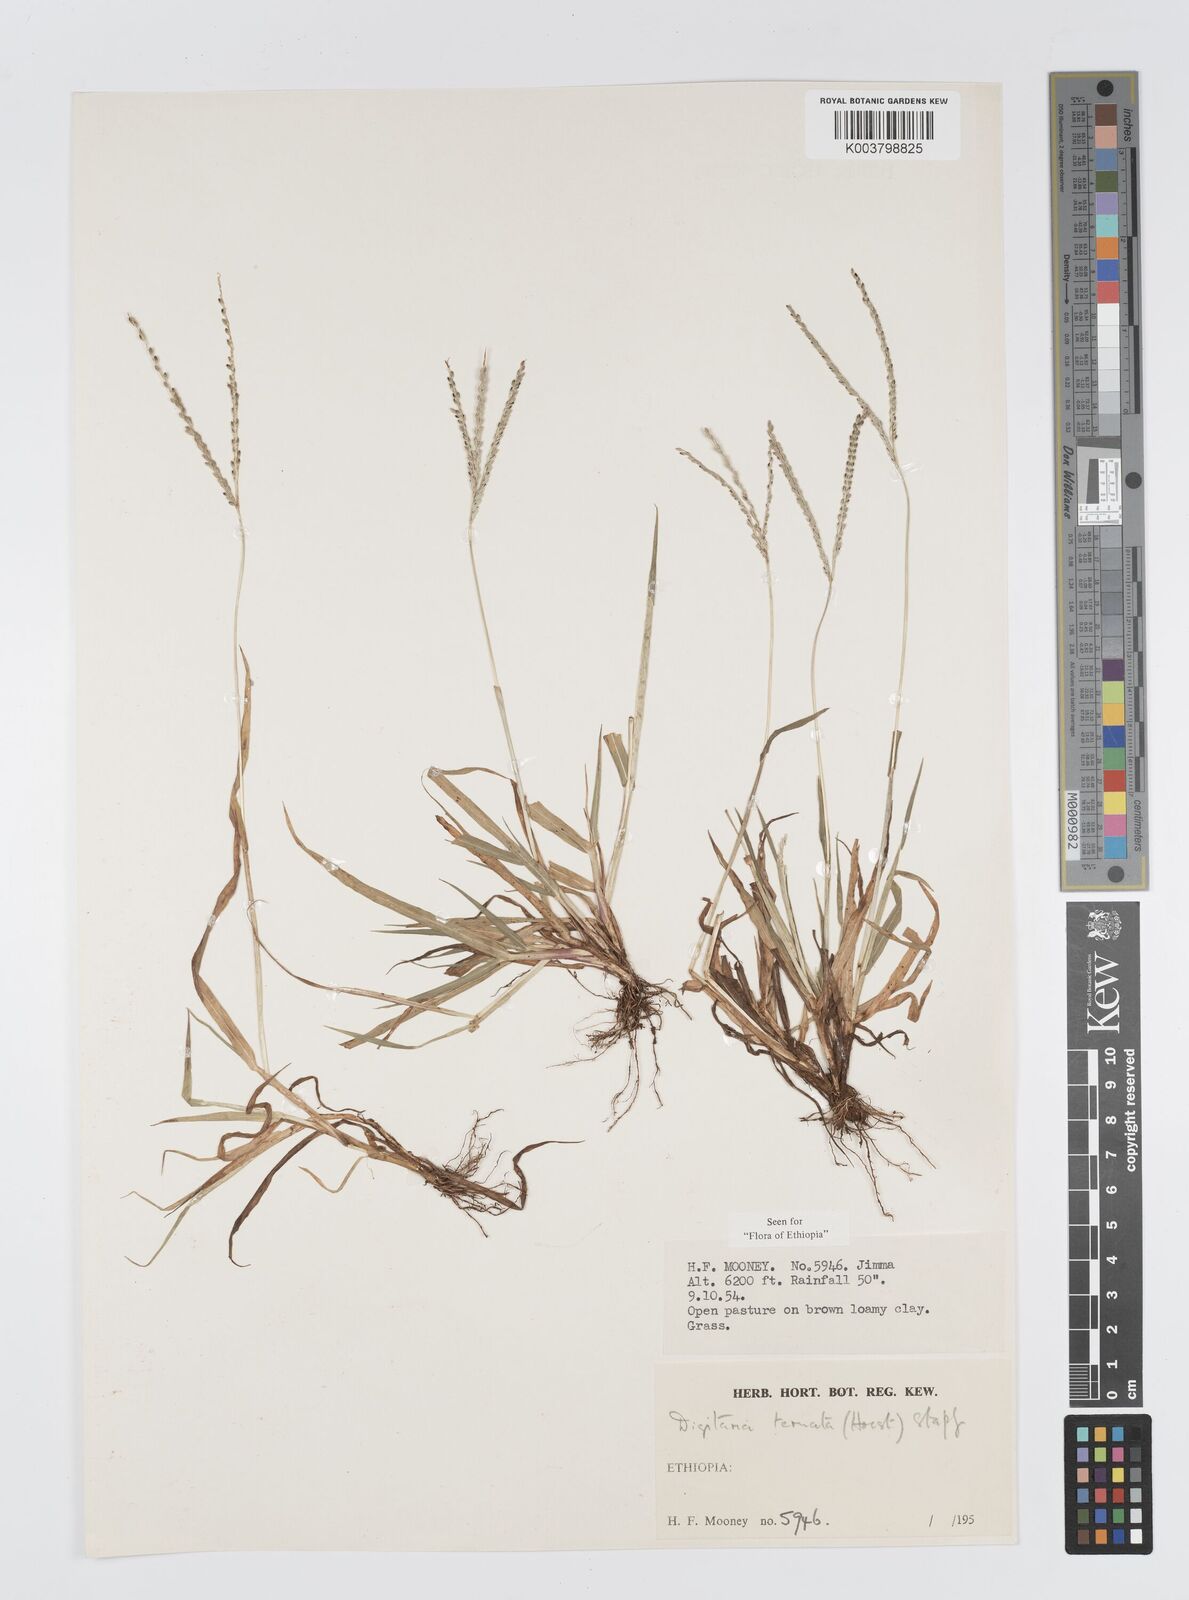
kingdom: Plantae
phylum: Tracheophyta
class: Liliopsida
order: Poales
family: Poaceae
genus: Digitaria
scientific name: Digitaria ternata
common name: Blackseed crabgrass
